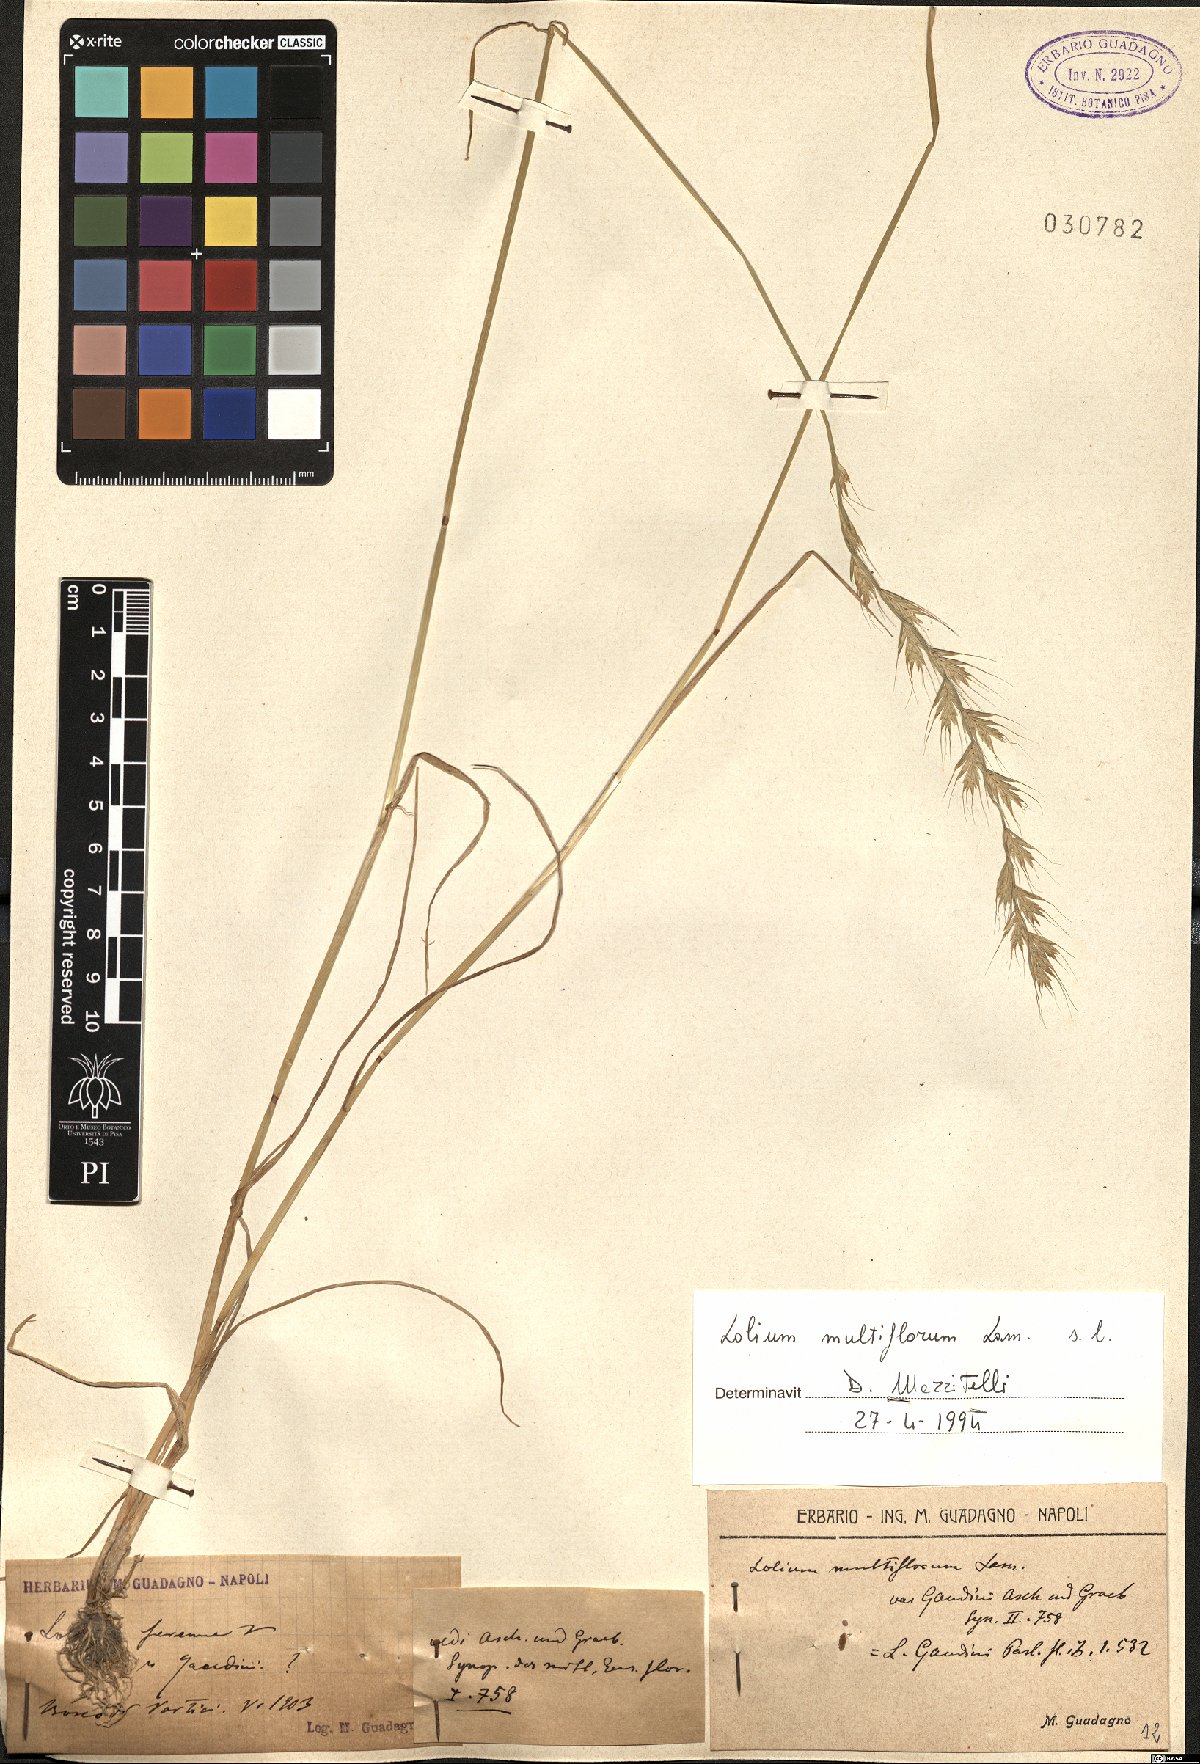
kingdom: Plantae
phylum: Tracheophyta
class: Liliopsida
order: Poales
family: Poaceae
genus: Lolium
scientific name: Lolium multiflorum
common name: Annual ryegrass
